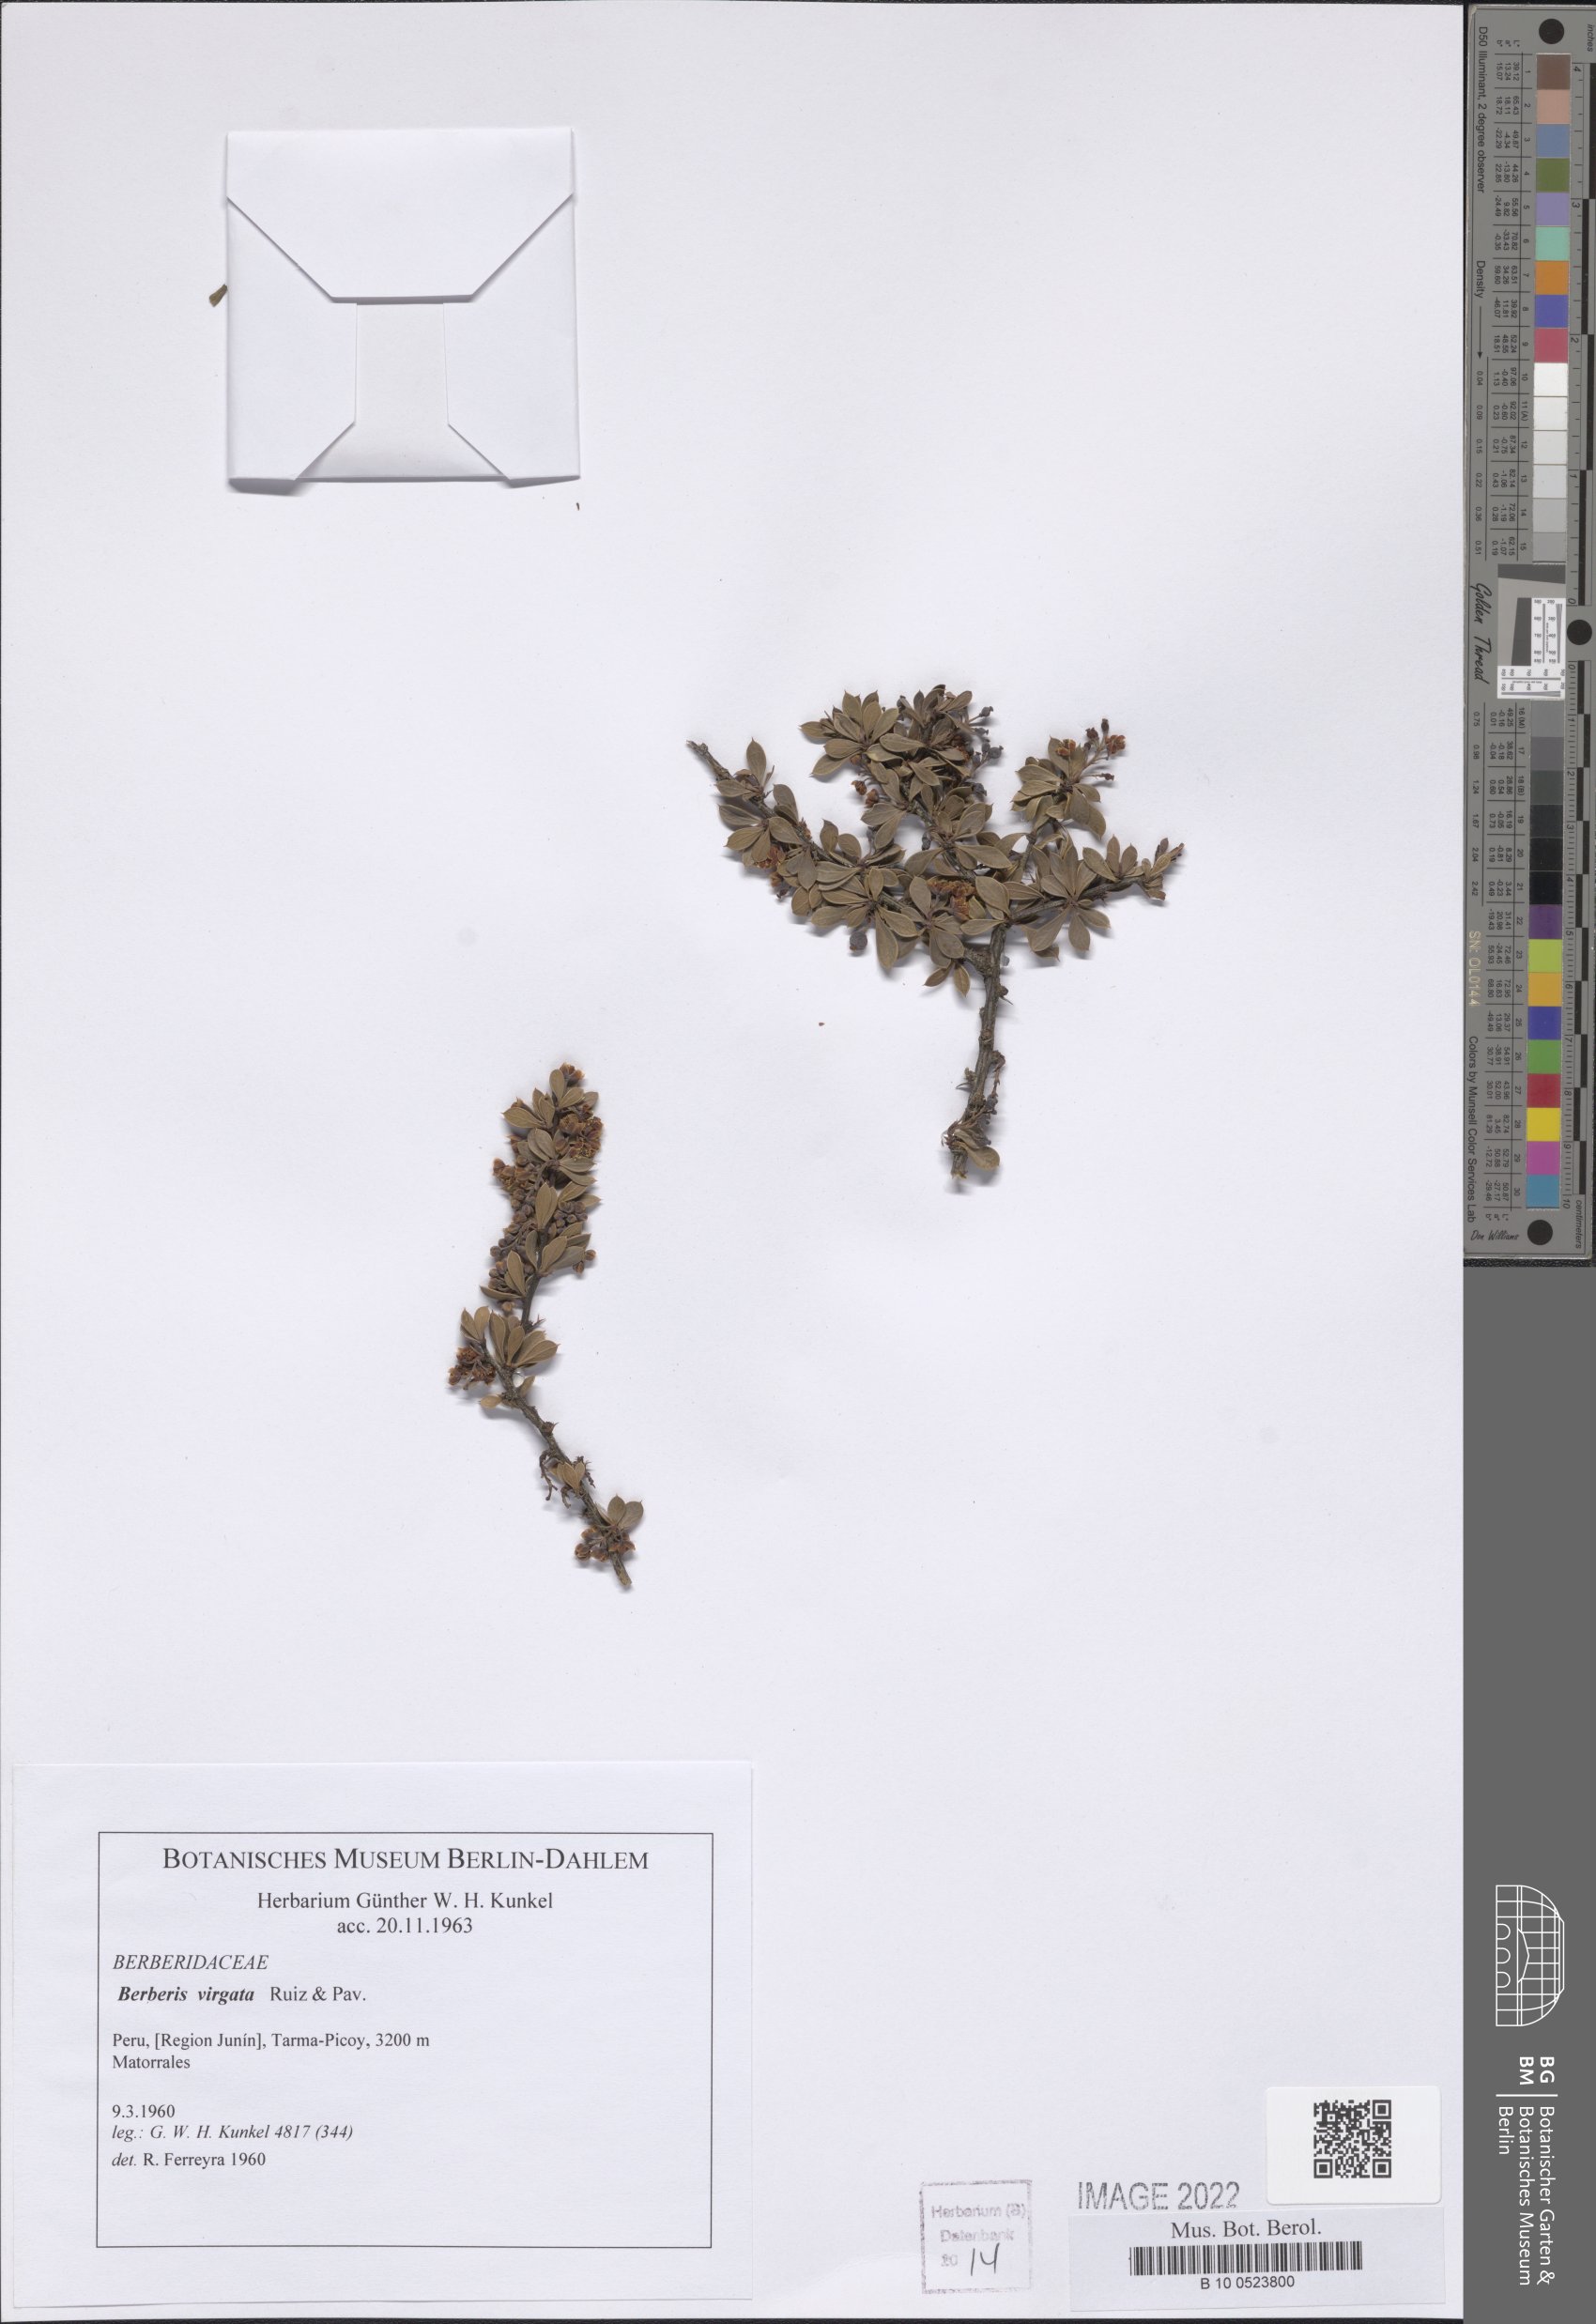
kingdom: Plantae
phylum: Tracheophyta
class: Magnoliopsida
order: Ranunculales
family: Berberidaceae
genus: Berberis
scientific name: Berberis lutea
